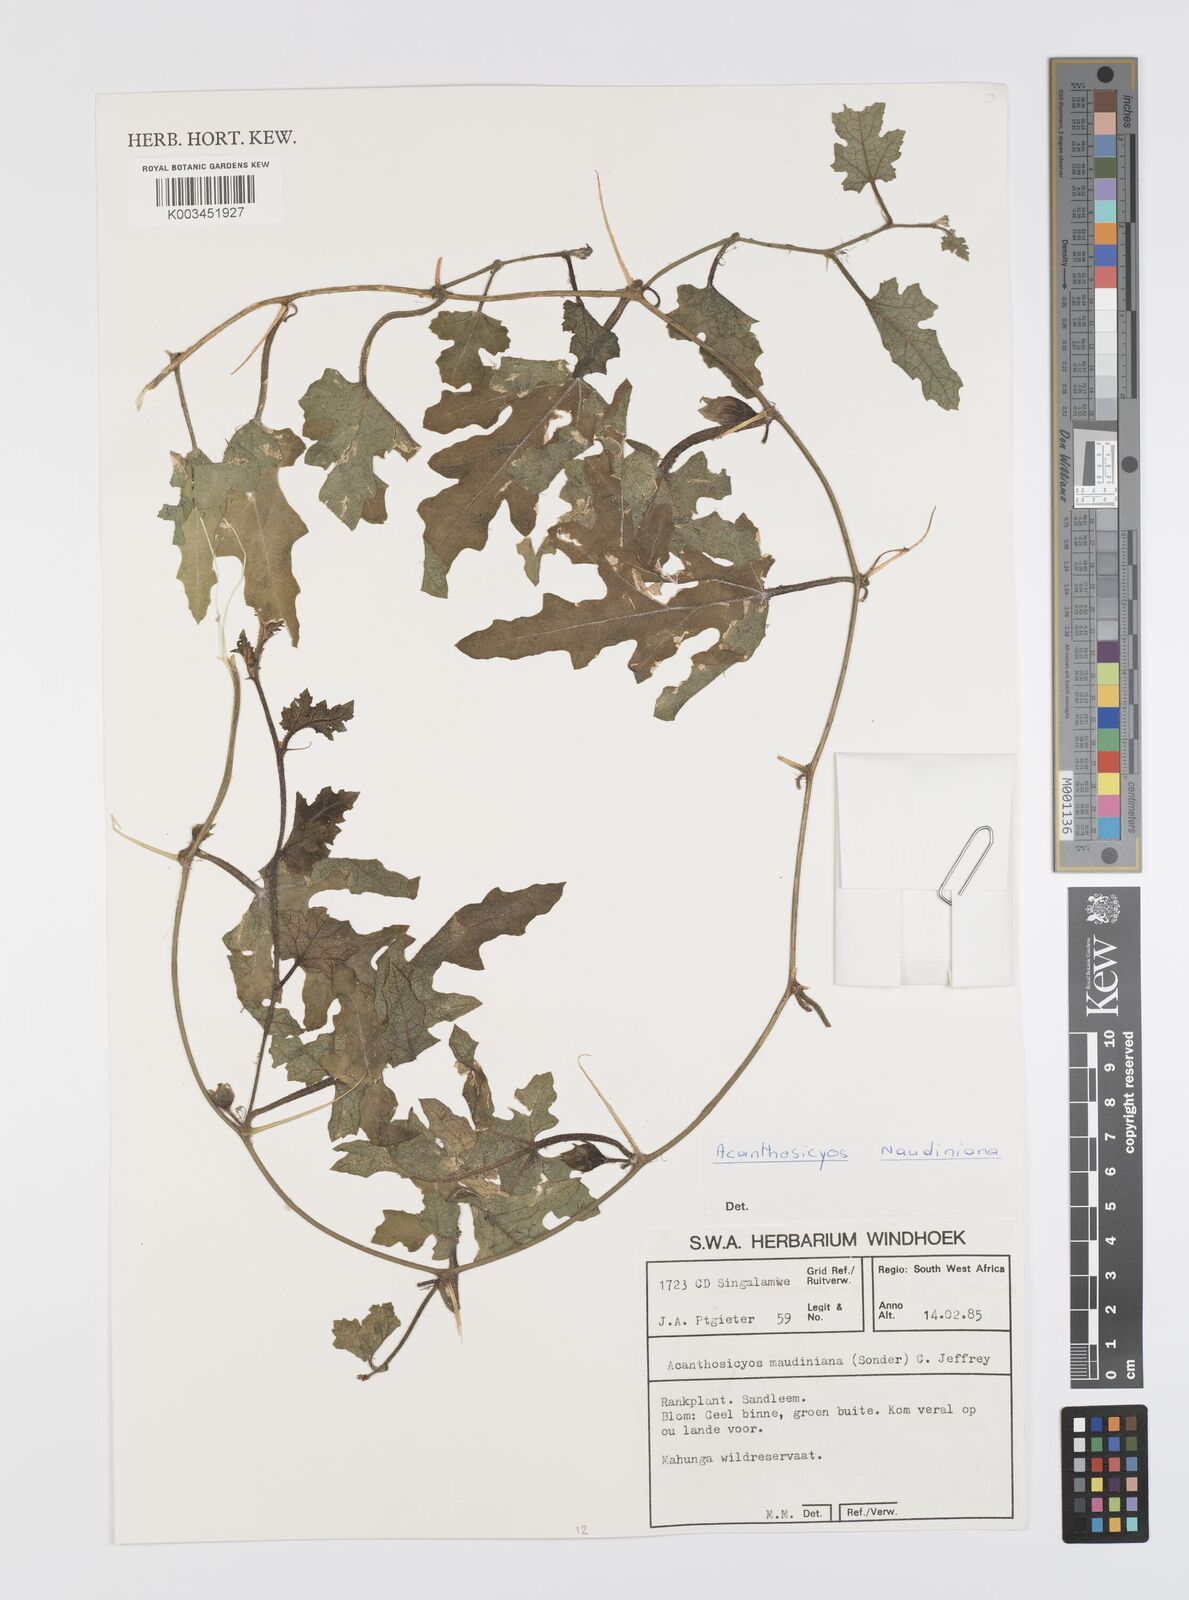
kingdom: Plantae
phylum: Tracheophyta
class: Magnoliopsida
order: Cucurbitales
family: Cucurbitaceae
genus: Citrullus
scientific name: Citrullus naudinianus
